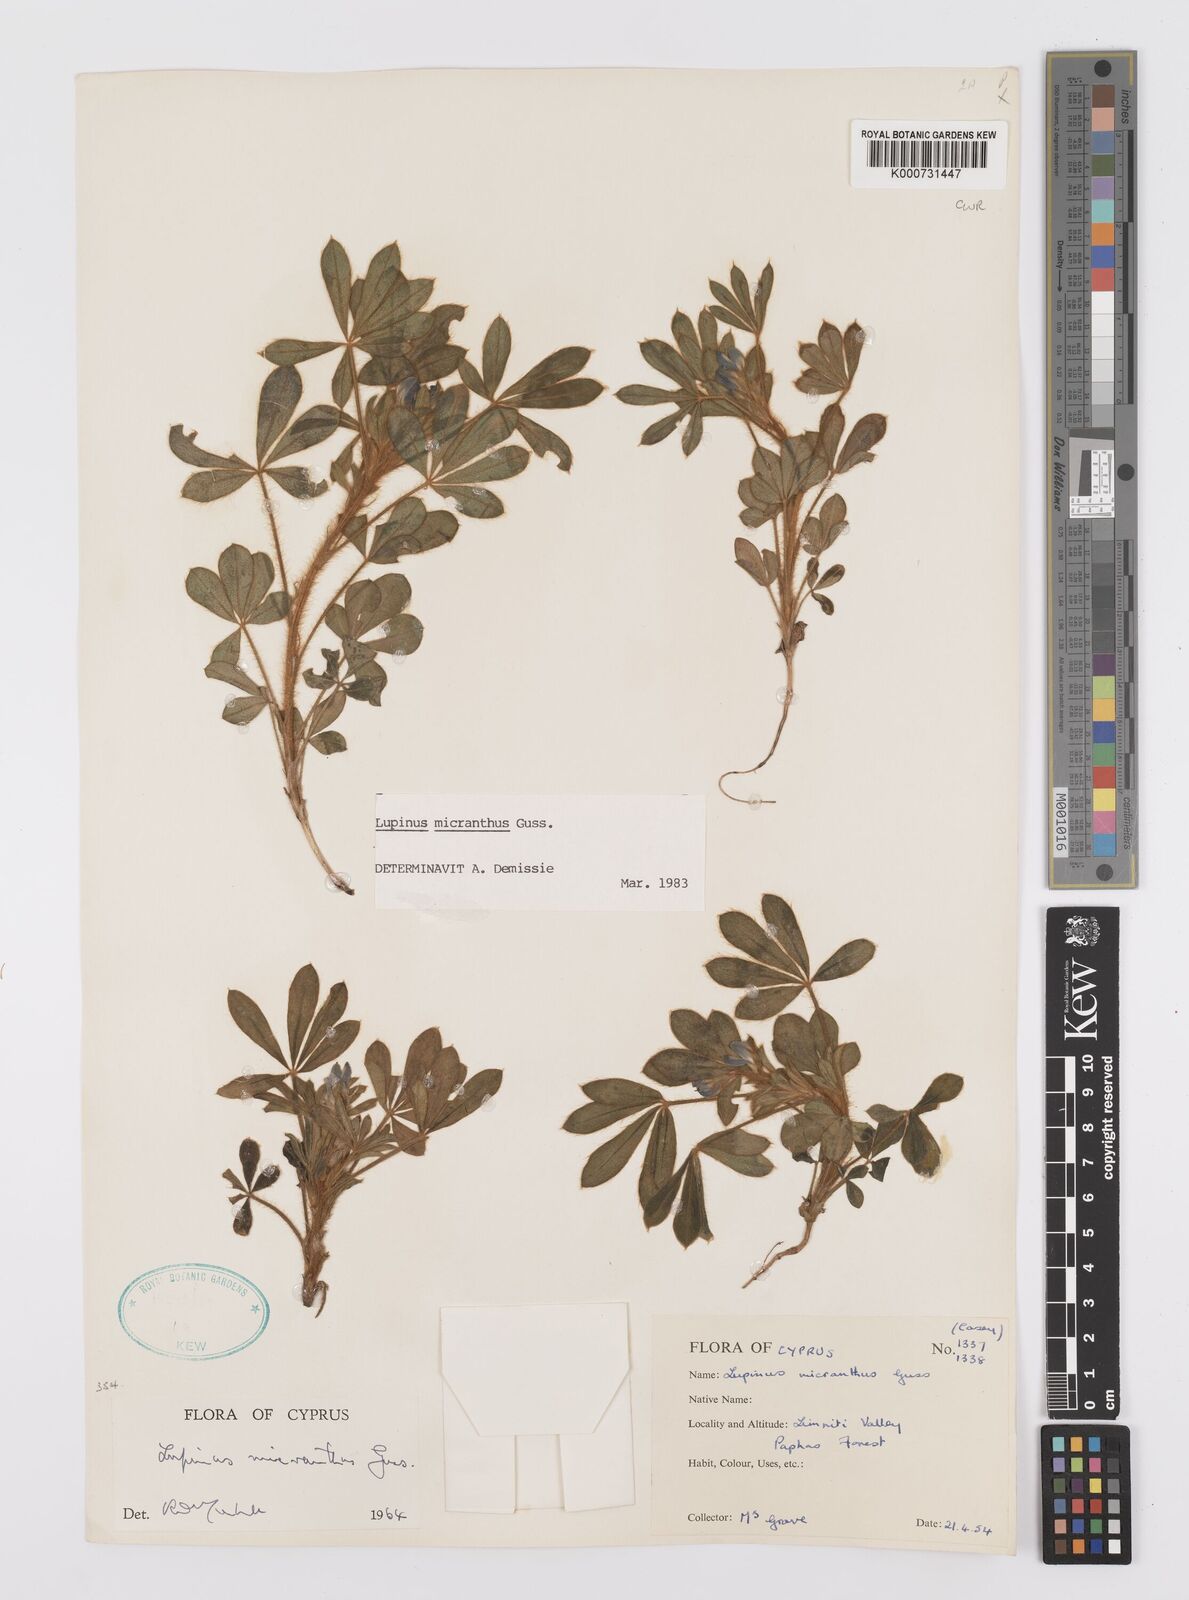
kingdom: Plantae
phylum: Tracheophyta
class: Magnoliopsida
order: Fabales
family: Fabaceae
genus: Lupinus
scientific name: Lupinus gussoneanus
